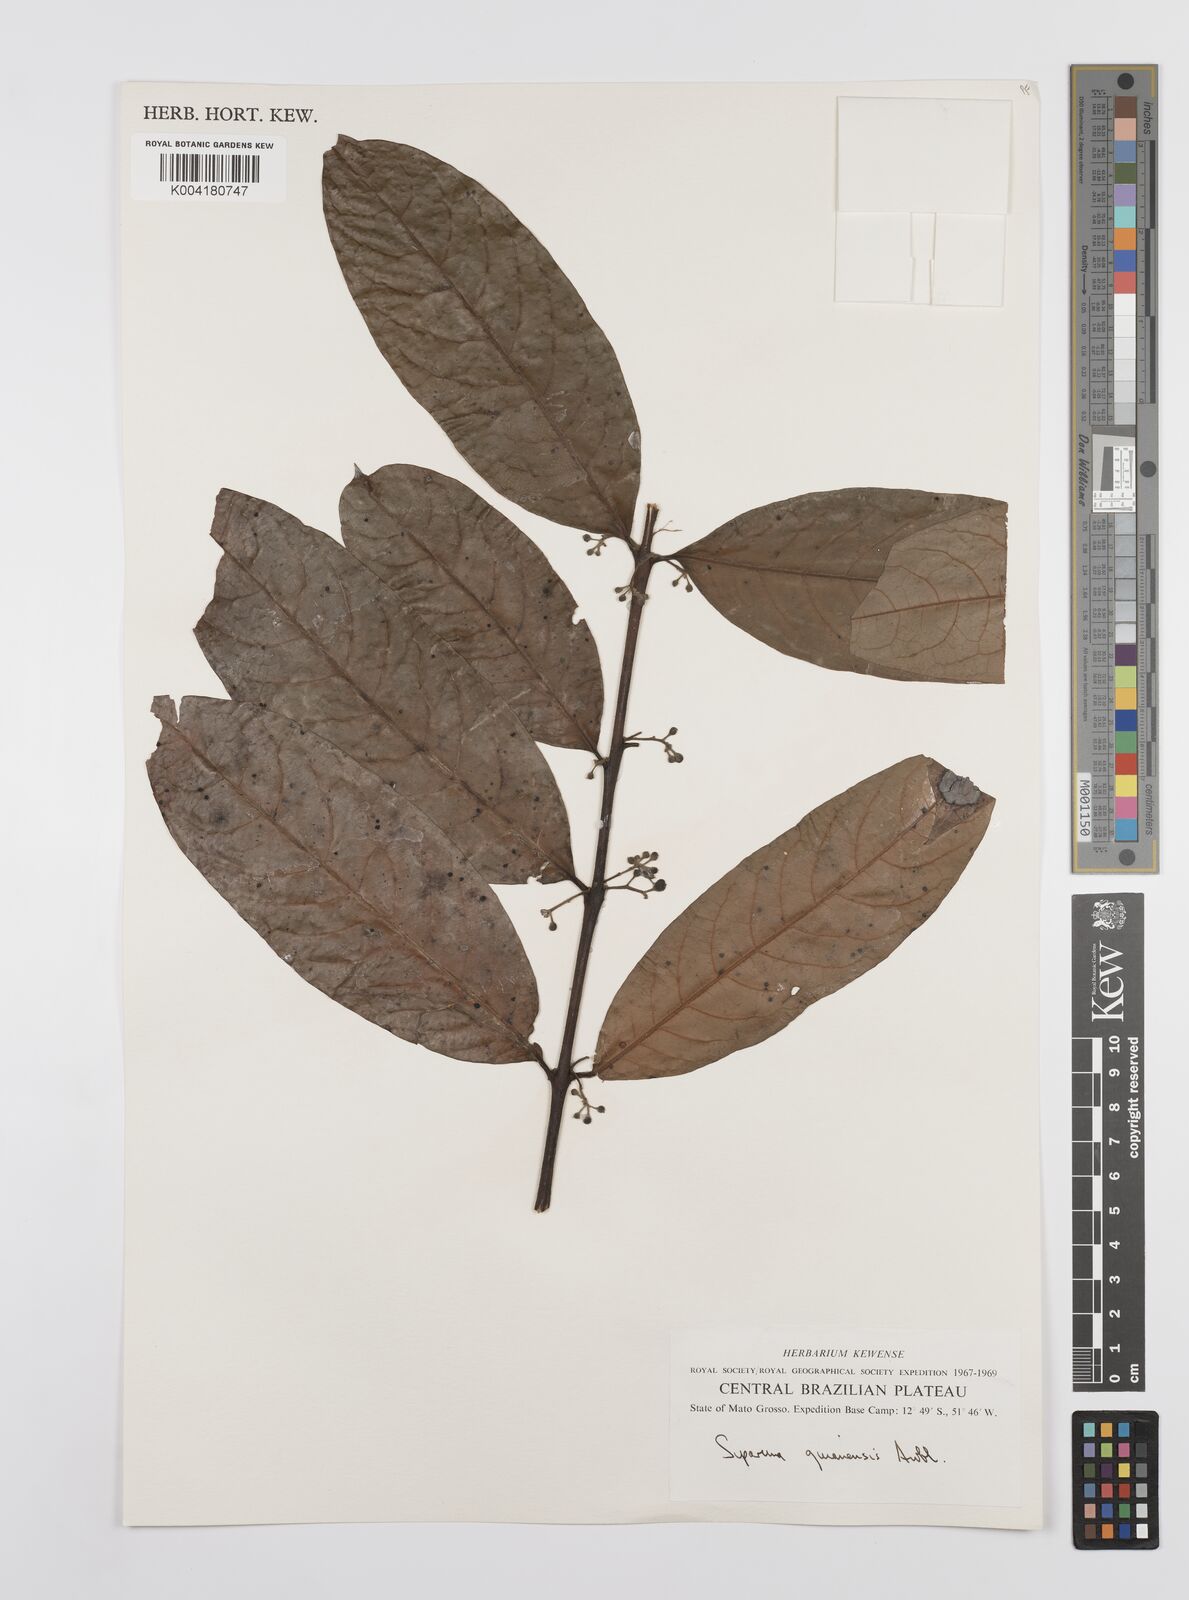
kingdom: Plantae
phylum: Tracheophyta
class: Magnoliopsida
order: Laurales
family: Siparunaceae
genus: Siparuna
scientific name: Siparuna guianensis
